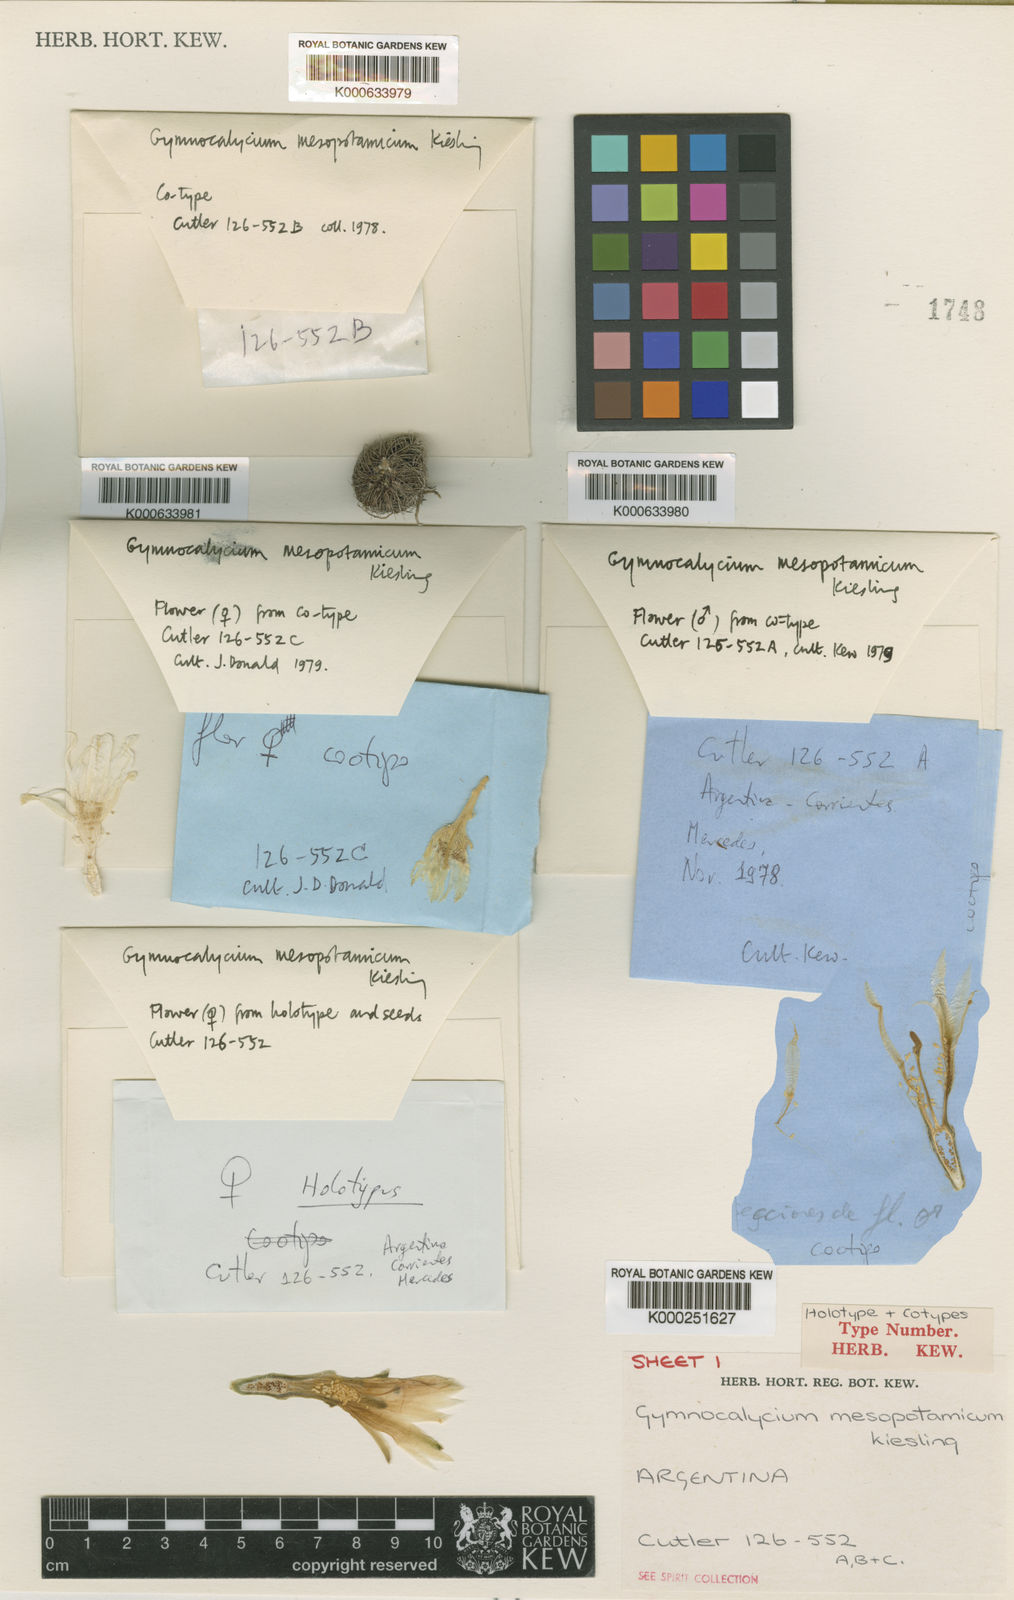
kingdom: Plantae
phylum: Tracheophyta
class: Magnoliopsida
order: Caryophyllales
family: Cactaceae
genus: Gymnocalycium
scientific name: Gymnocalycium mesopotamicum
